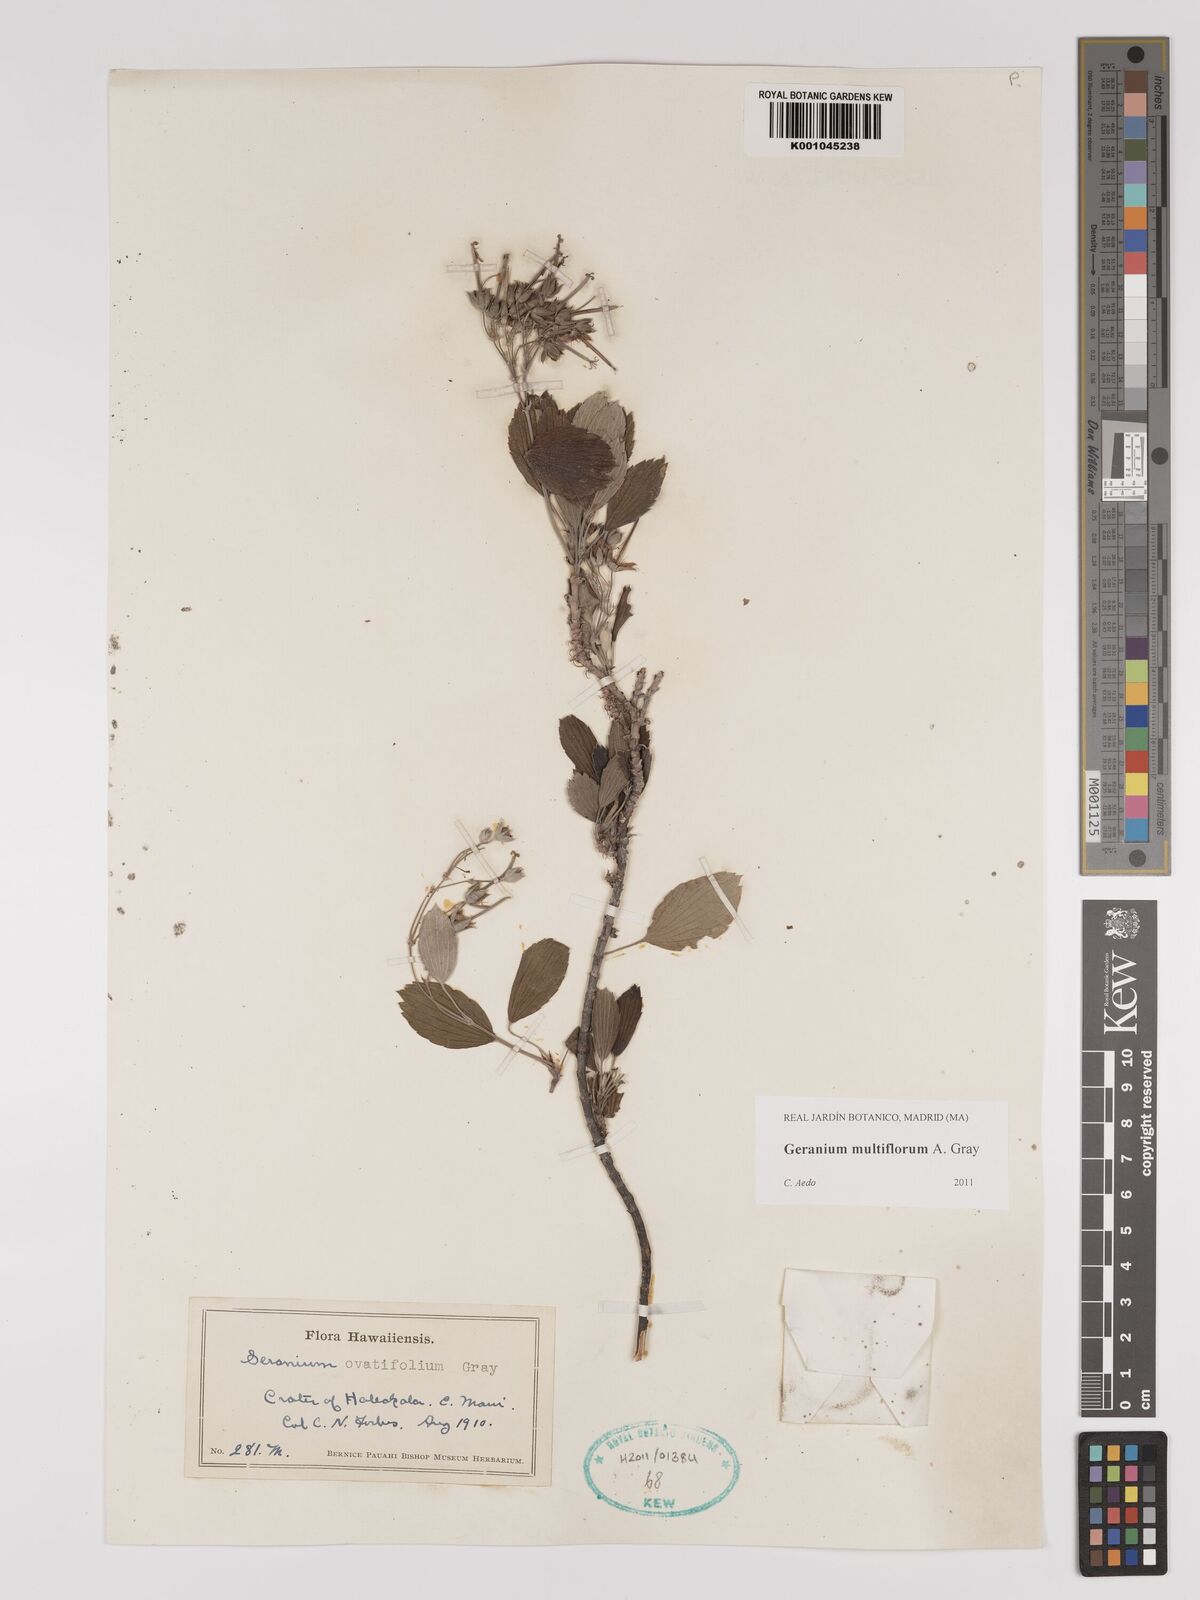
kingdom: Plantae
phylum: Tracheophyta
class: Magnoliopsida
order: Geraniales
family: Geraniaceae
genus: Geranium
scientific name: Geranium multiflorum
